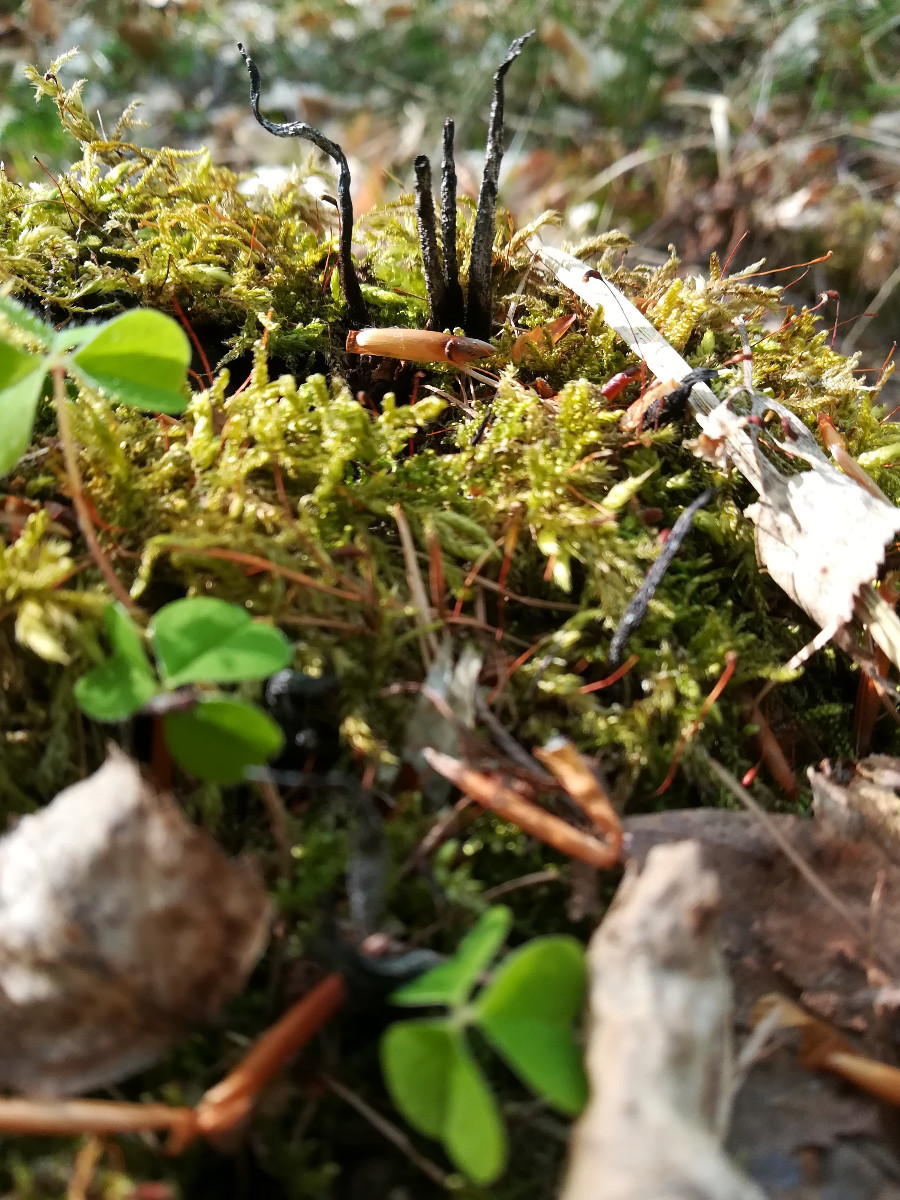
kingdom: Fungi
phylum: Ascomycota
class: Sordariomycetes
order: Xylariales
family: Xylariaceae
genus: Xylaria
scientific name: Xylaria hypoxylon
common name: grenet stødsvamp
